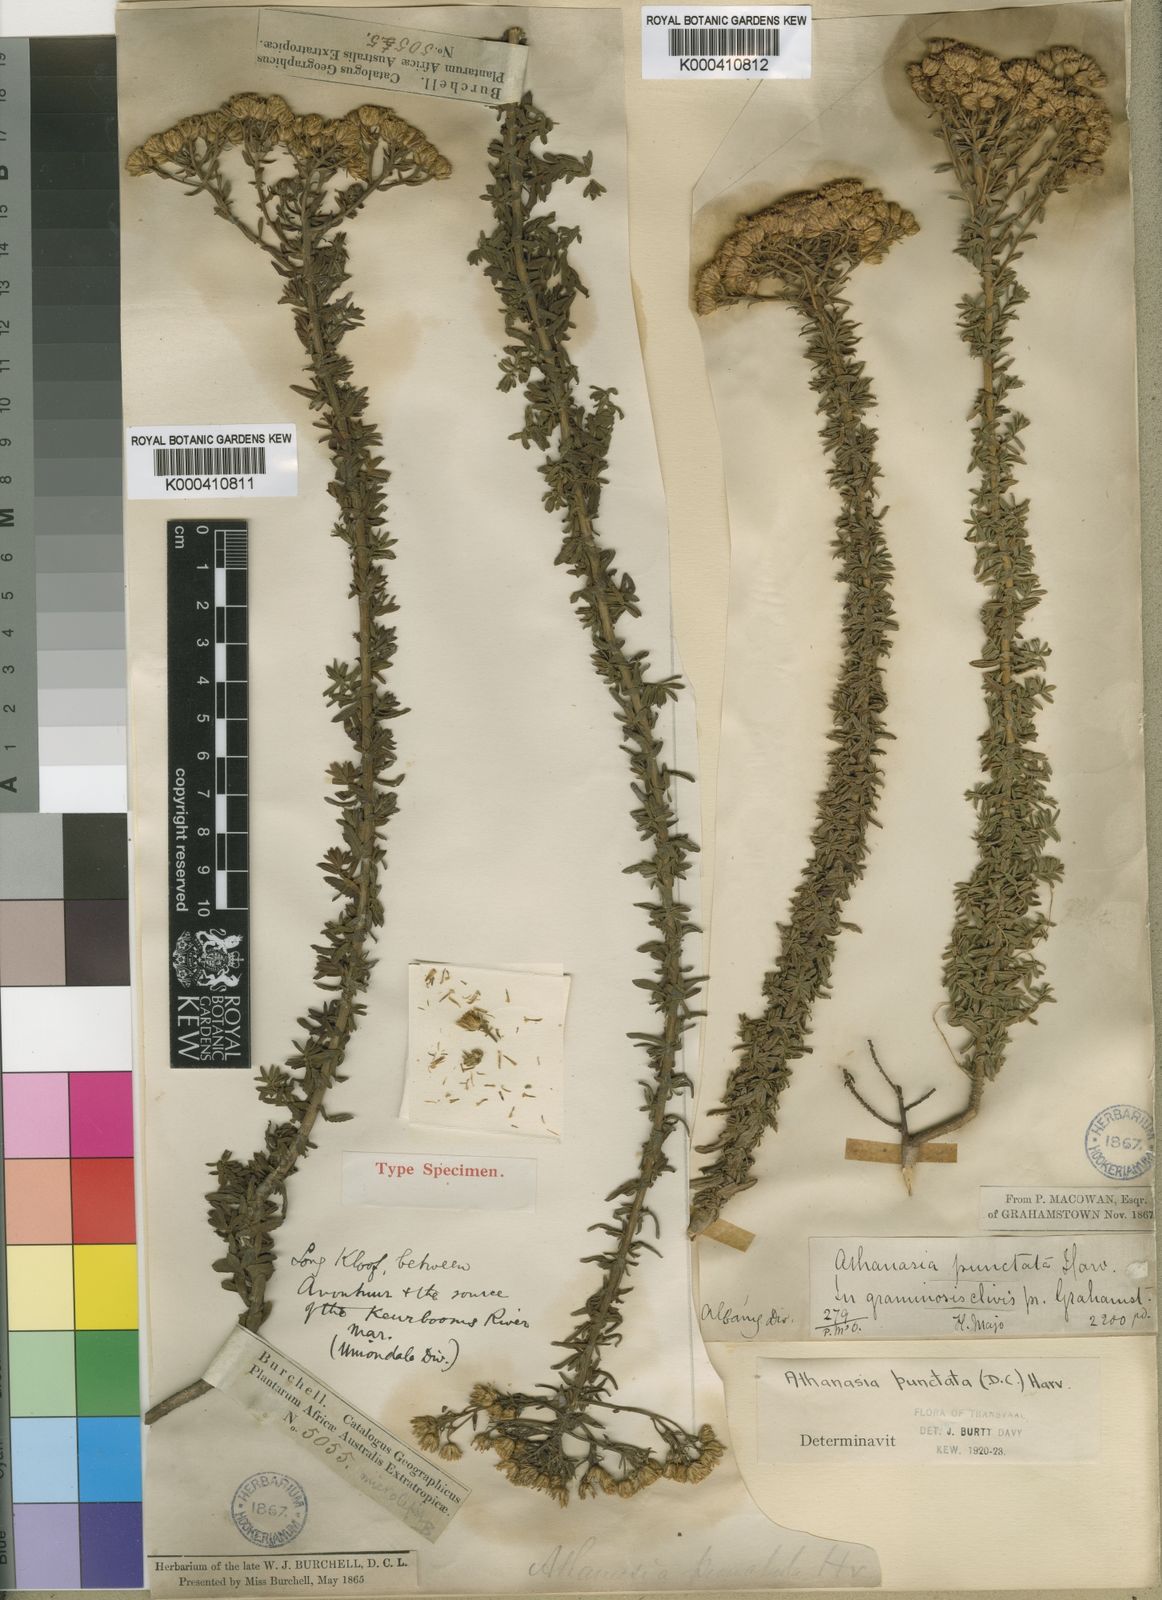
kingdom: Plantae
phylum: Tracheophyta
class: Magnoliopsida
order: Asterales
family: Asteraceae
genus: Inulanthera
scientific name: Inulanthera
